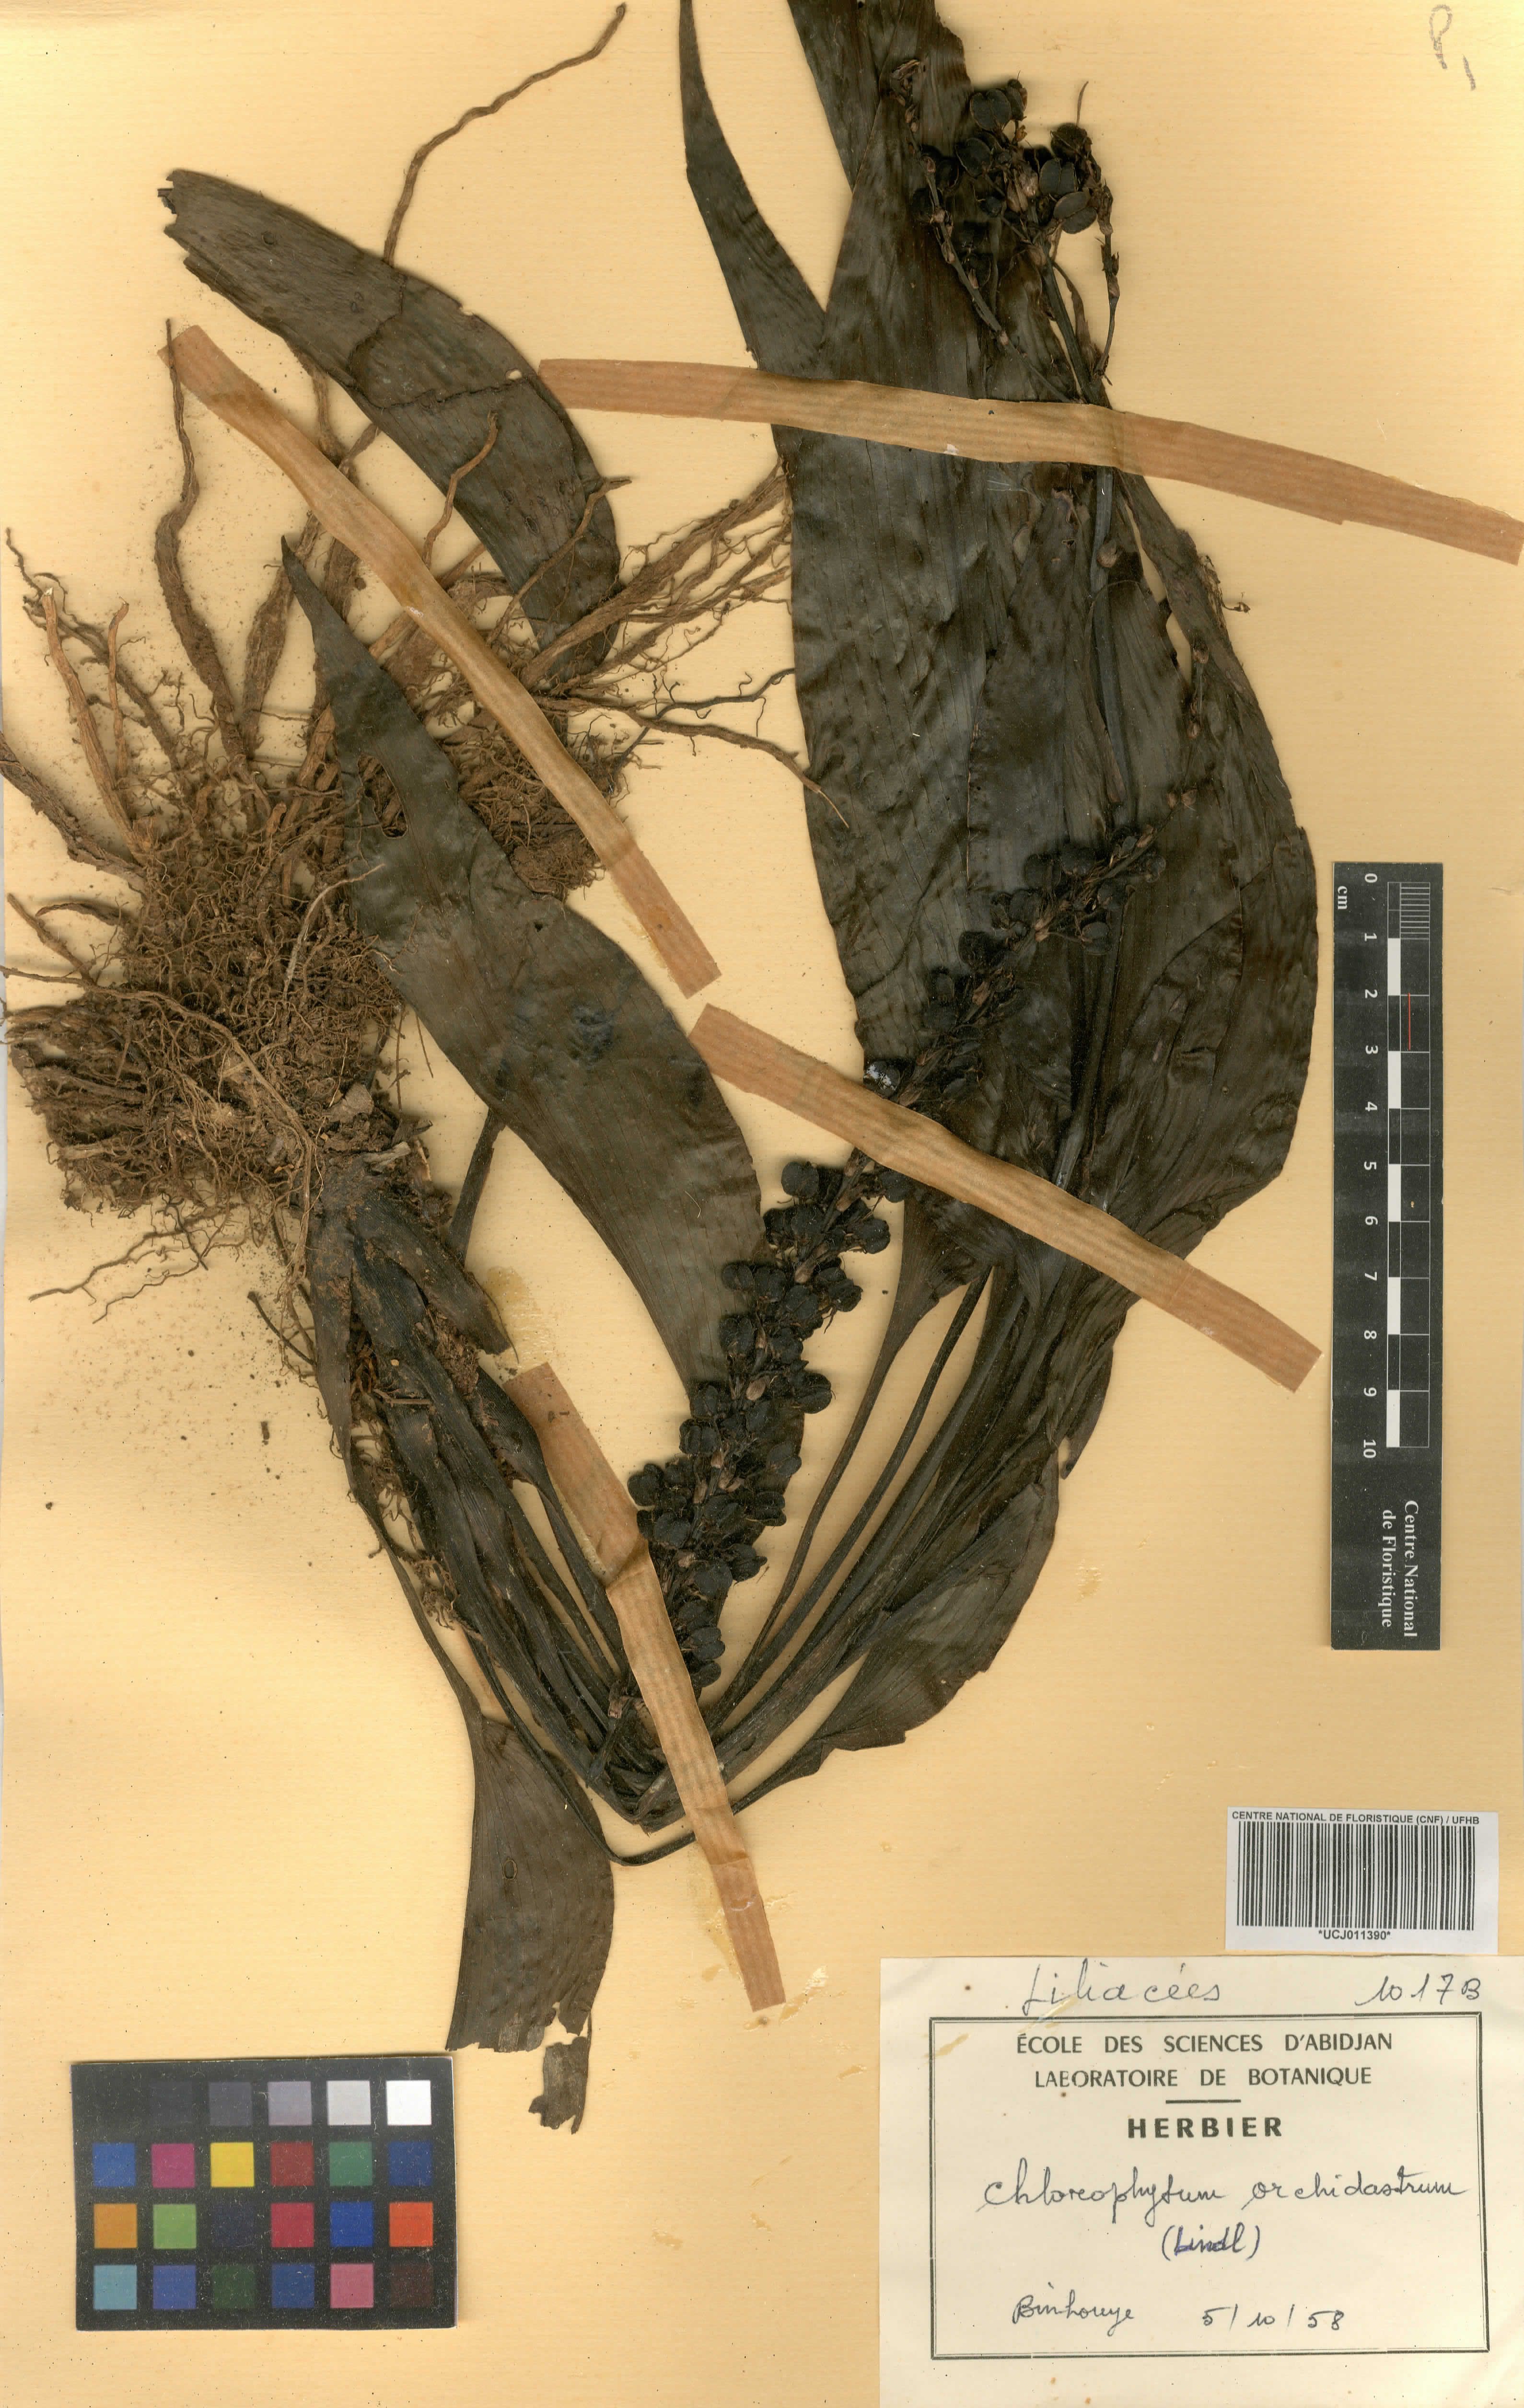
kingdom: Plantae
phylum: Tracheophyta
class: Liliopsida
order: Asparagales
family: Asparagaceae
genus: Chlorophytum
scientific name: Chlorophytum orchidastrum
